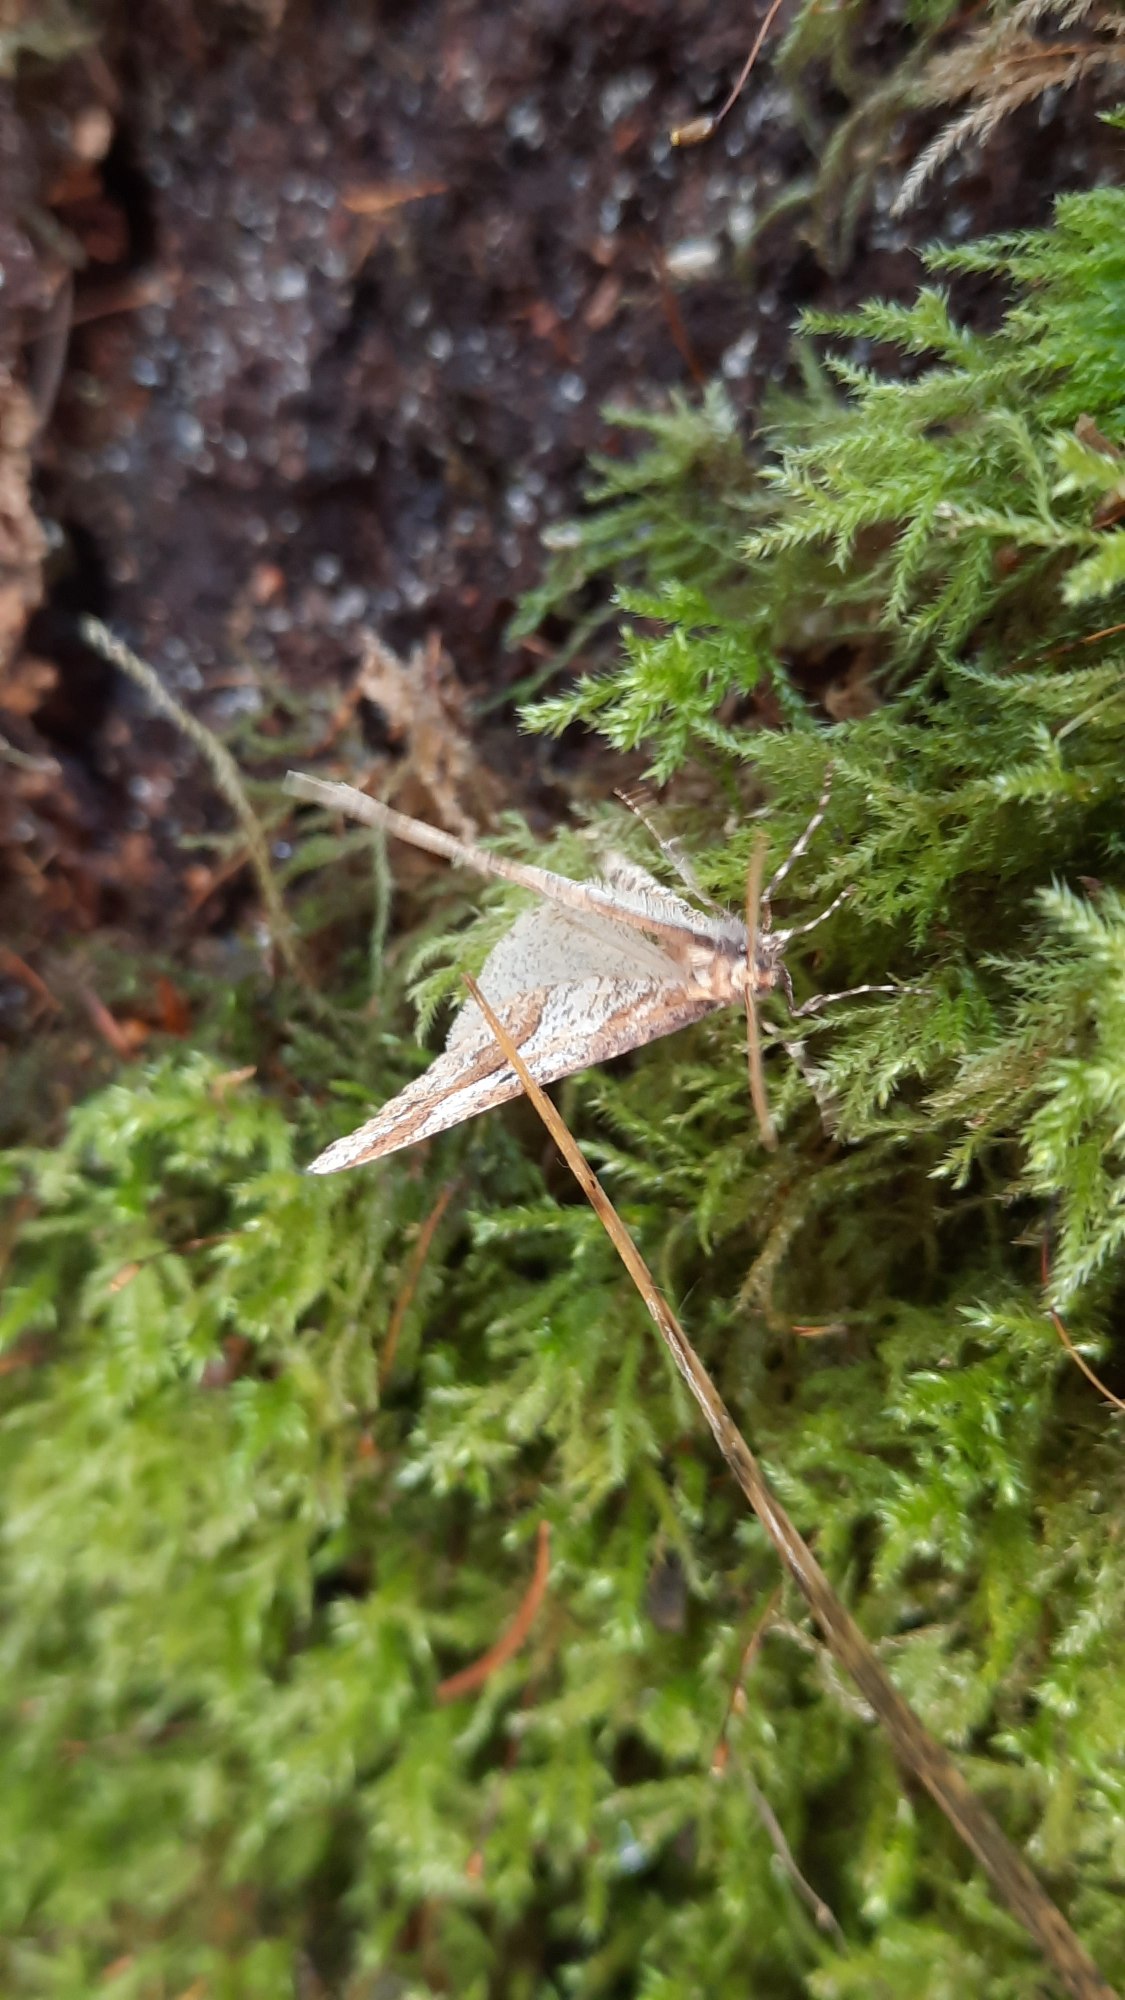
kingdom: Animalia
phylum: Arthropoda
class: Insecta
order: Lepidoptera
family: Geometridae
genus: Erannis
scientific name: Erannis defoliaria
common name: Stor frostmåler
